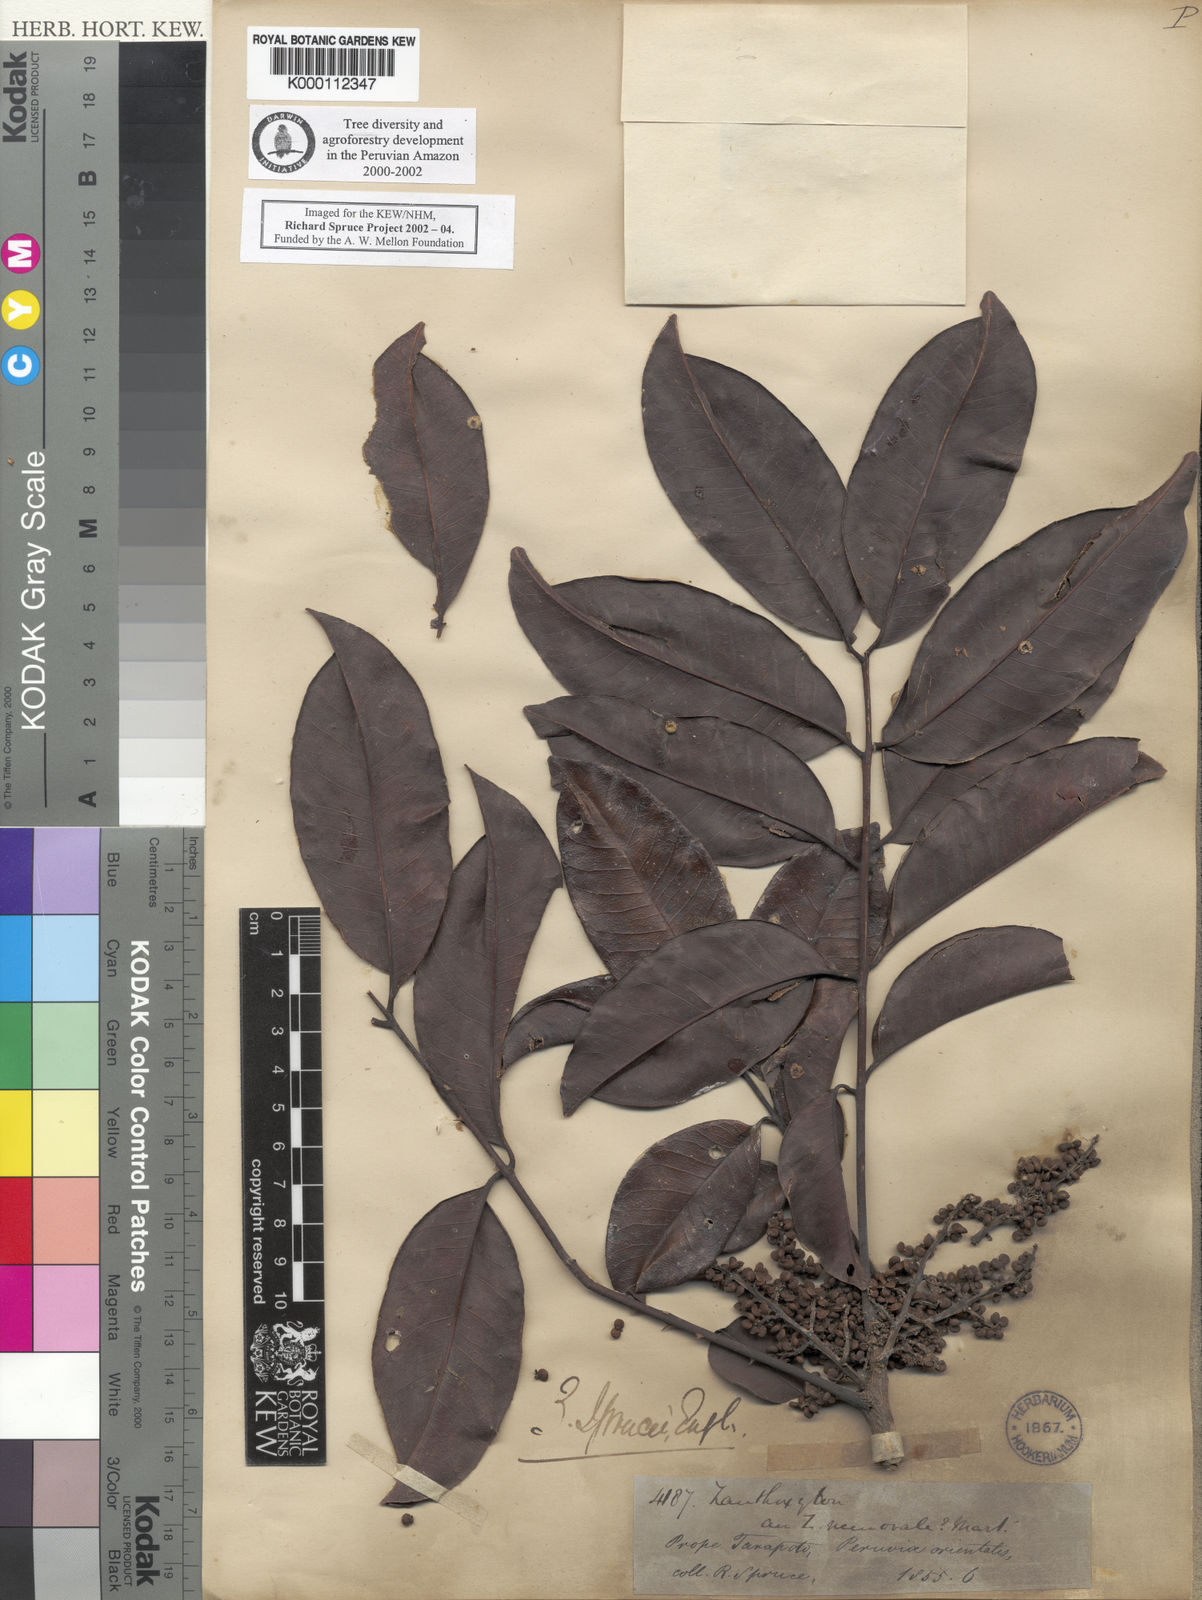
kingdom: Plantae
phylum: Tracheophyta
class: Magnoliopsida
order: Sapindales
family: Rutaceae
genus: Zanthoxylum
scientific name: Zanthoxylum sprucei
